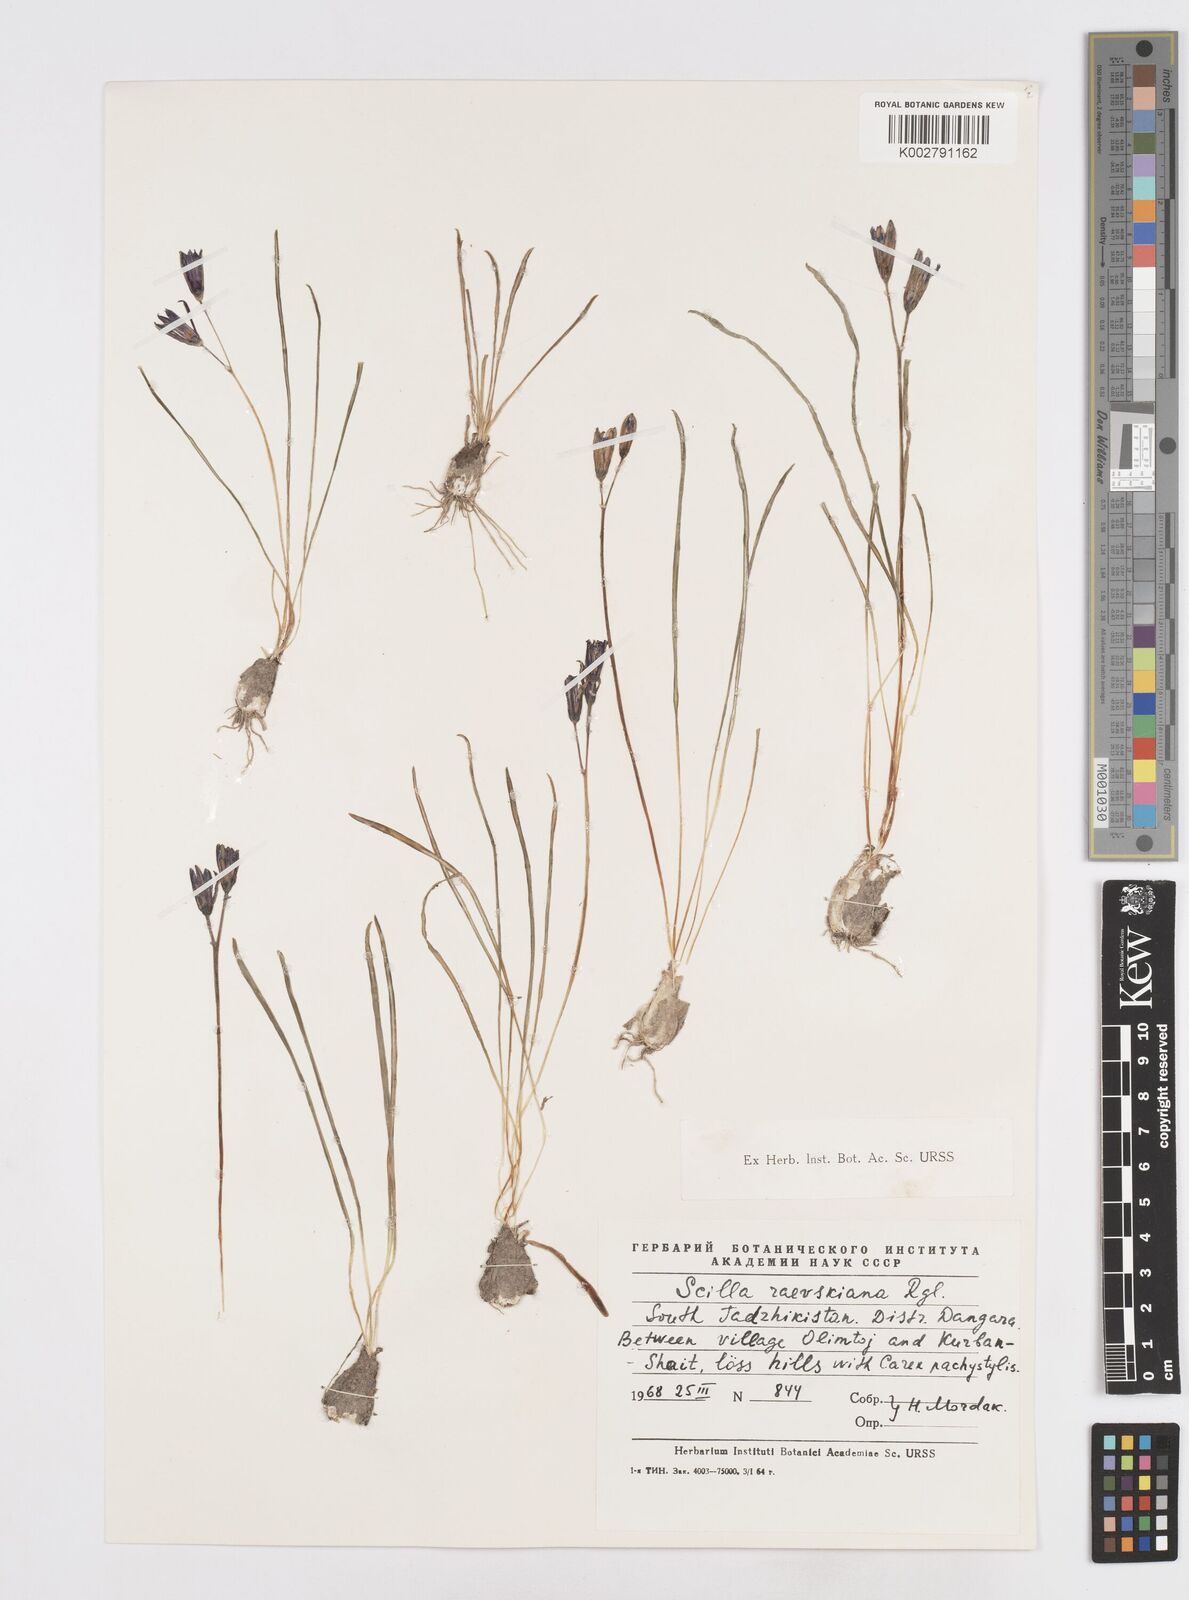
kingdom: Plantae
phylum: Tracheophyta
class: Liliopsida
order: Asparagales
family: Asparagaceae
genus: Fessia
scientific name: Fessia raewskiana
